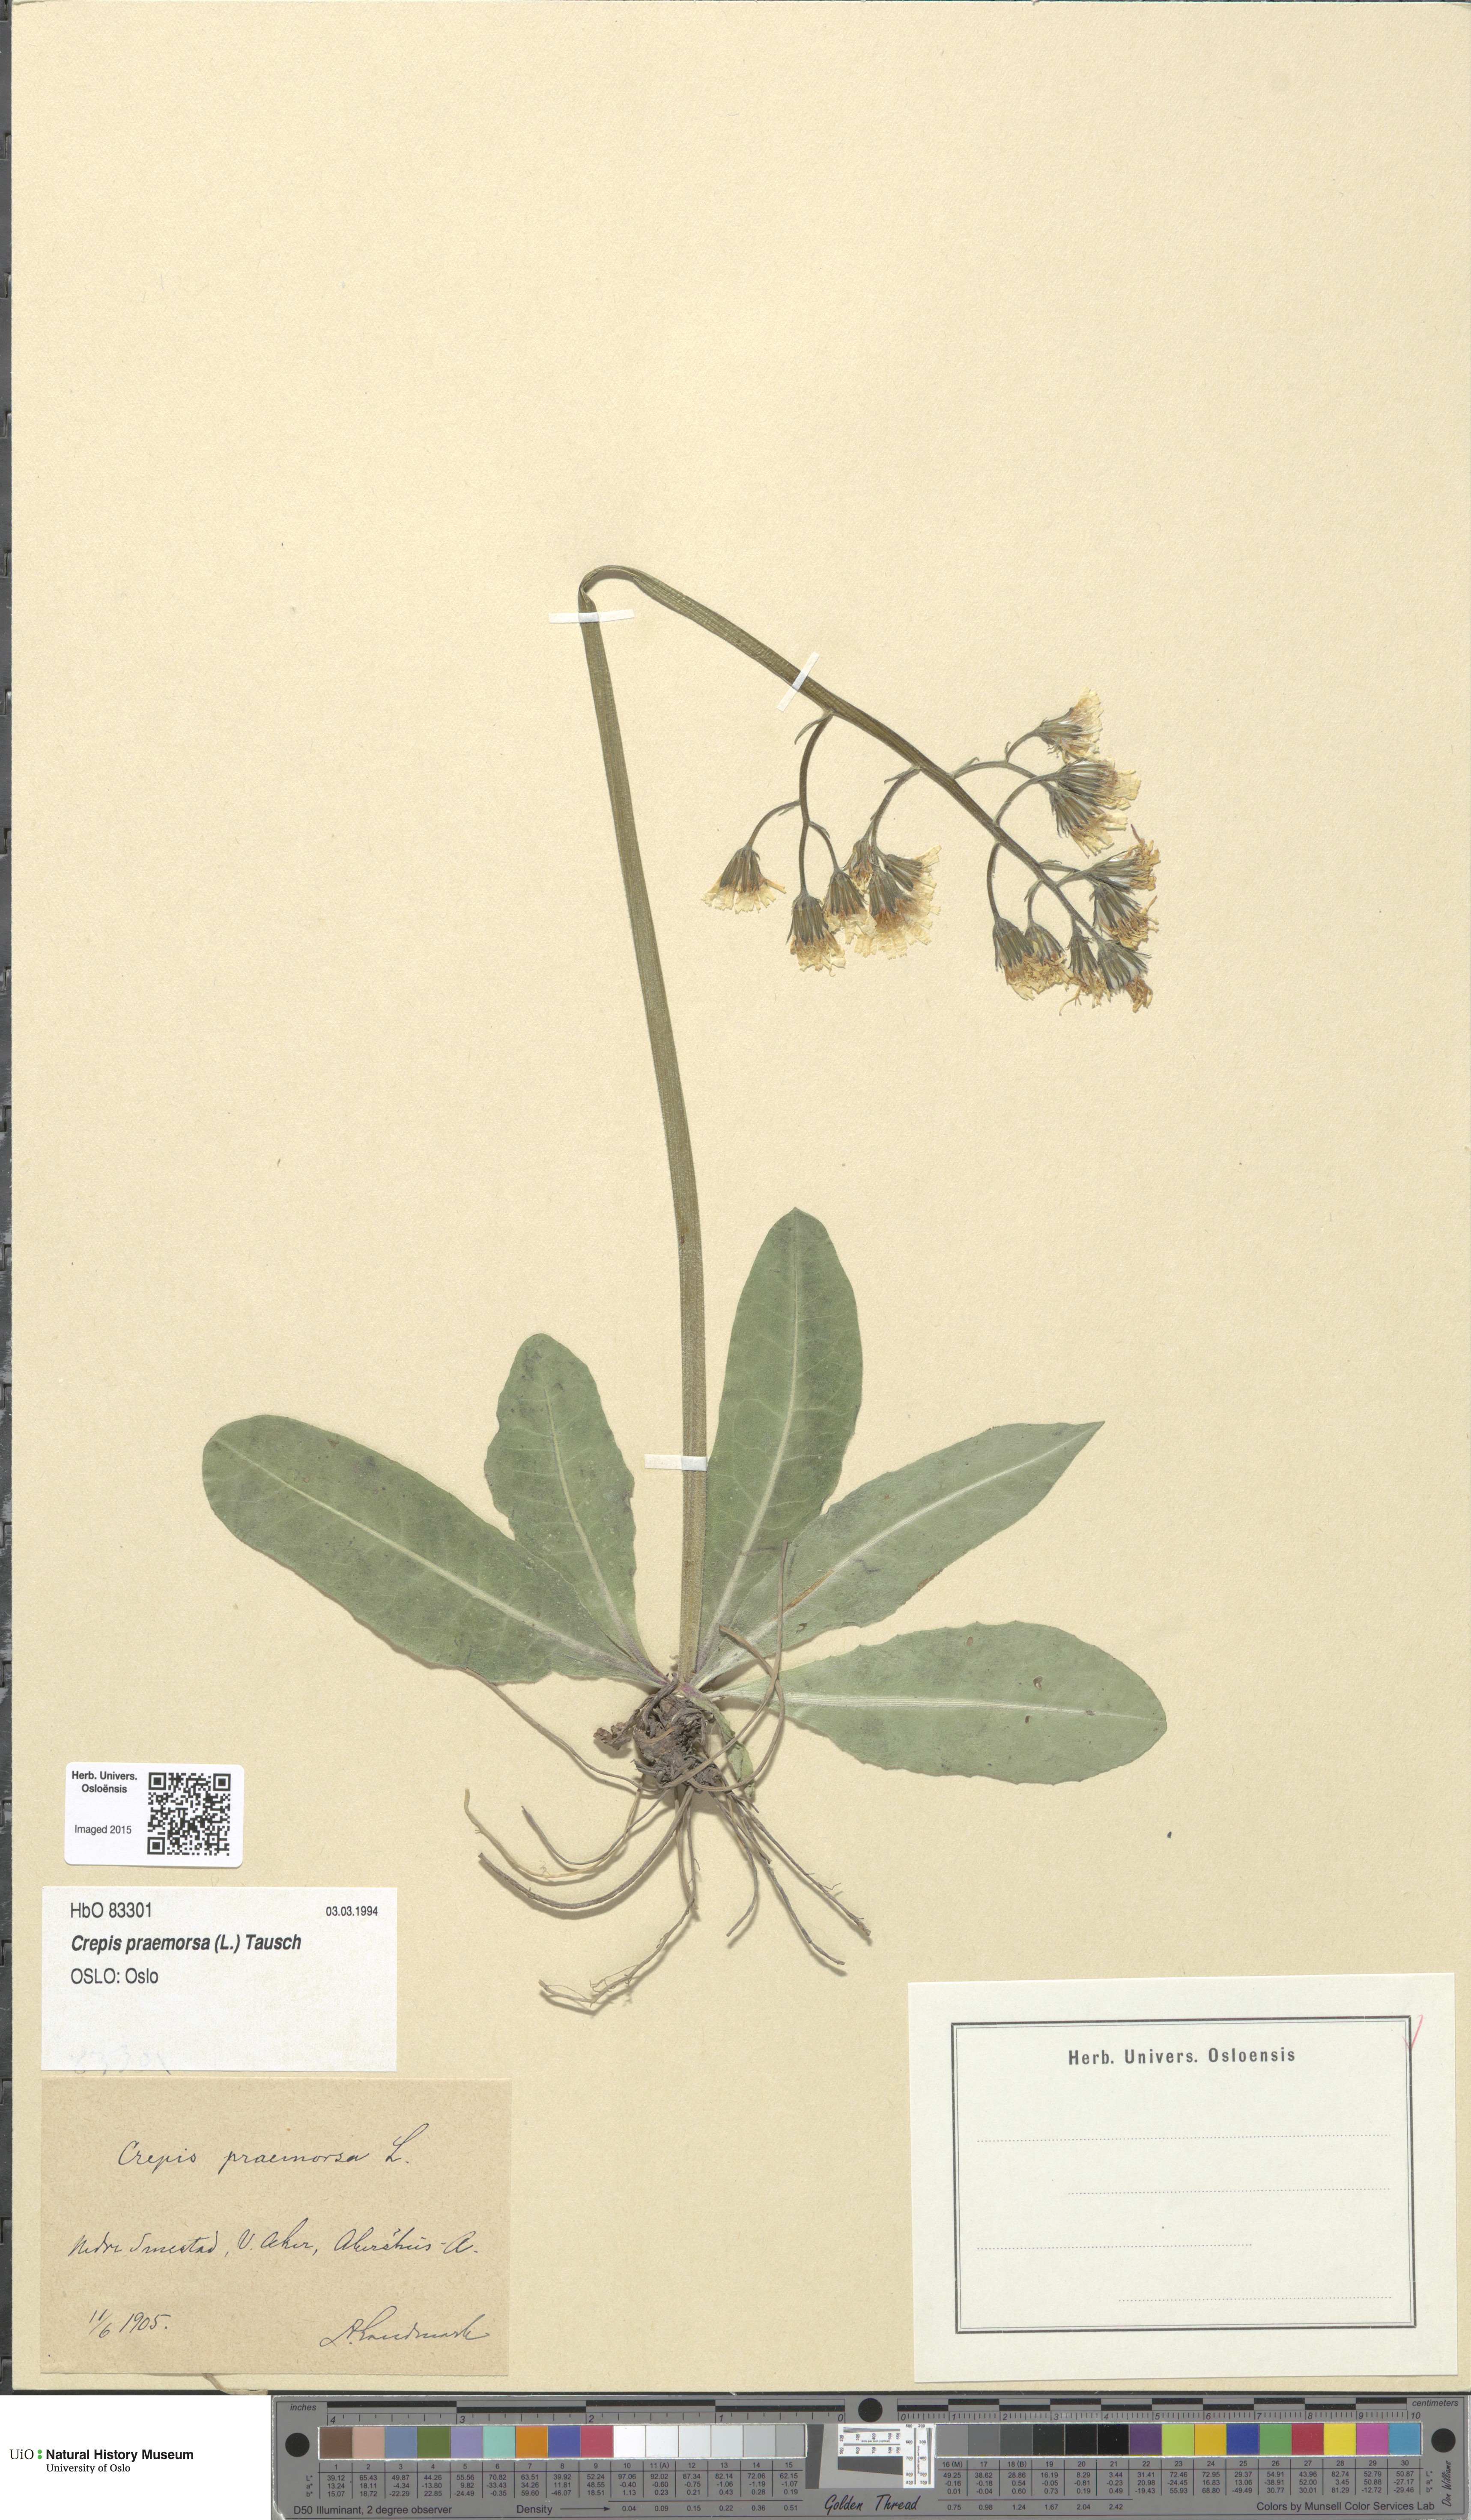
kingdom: Plantae
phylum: Tracheophyta
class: Magnoliopsida
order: Asterales
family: Asteraceae
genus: Crepis
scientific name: Crepis praemorsa
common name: Leafless hawk's-beard
